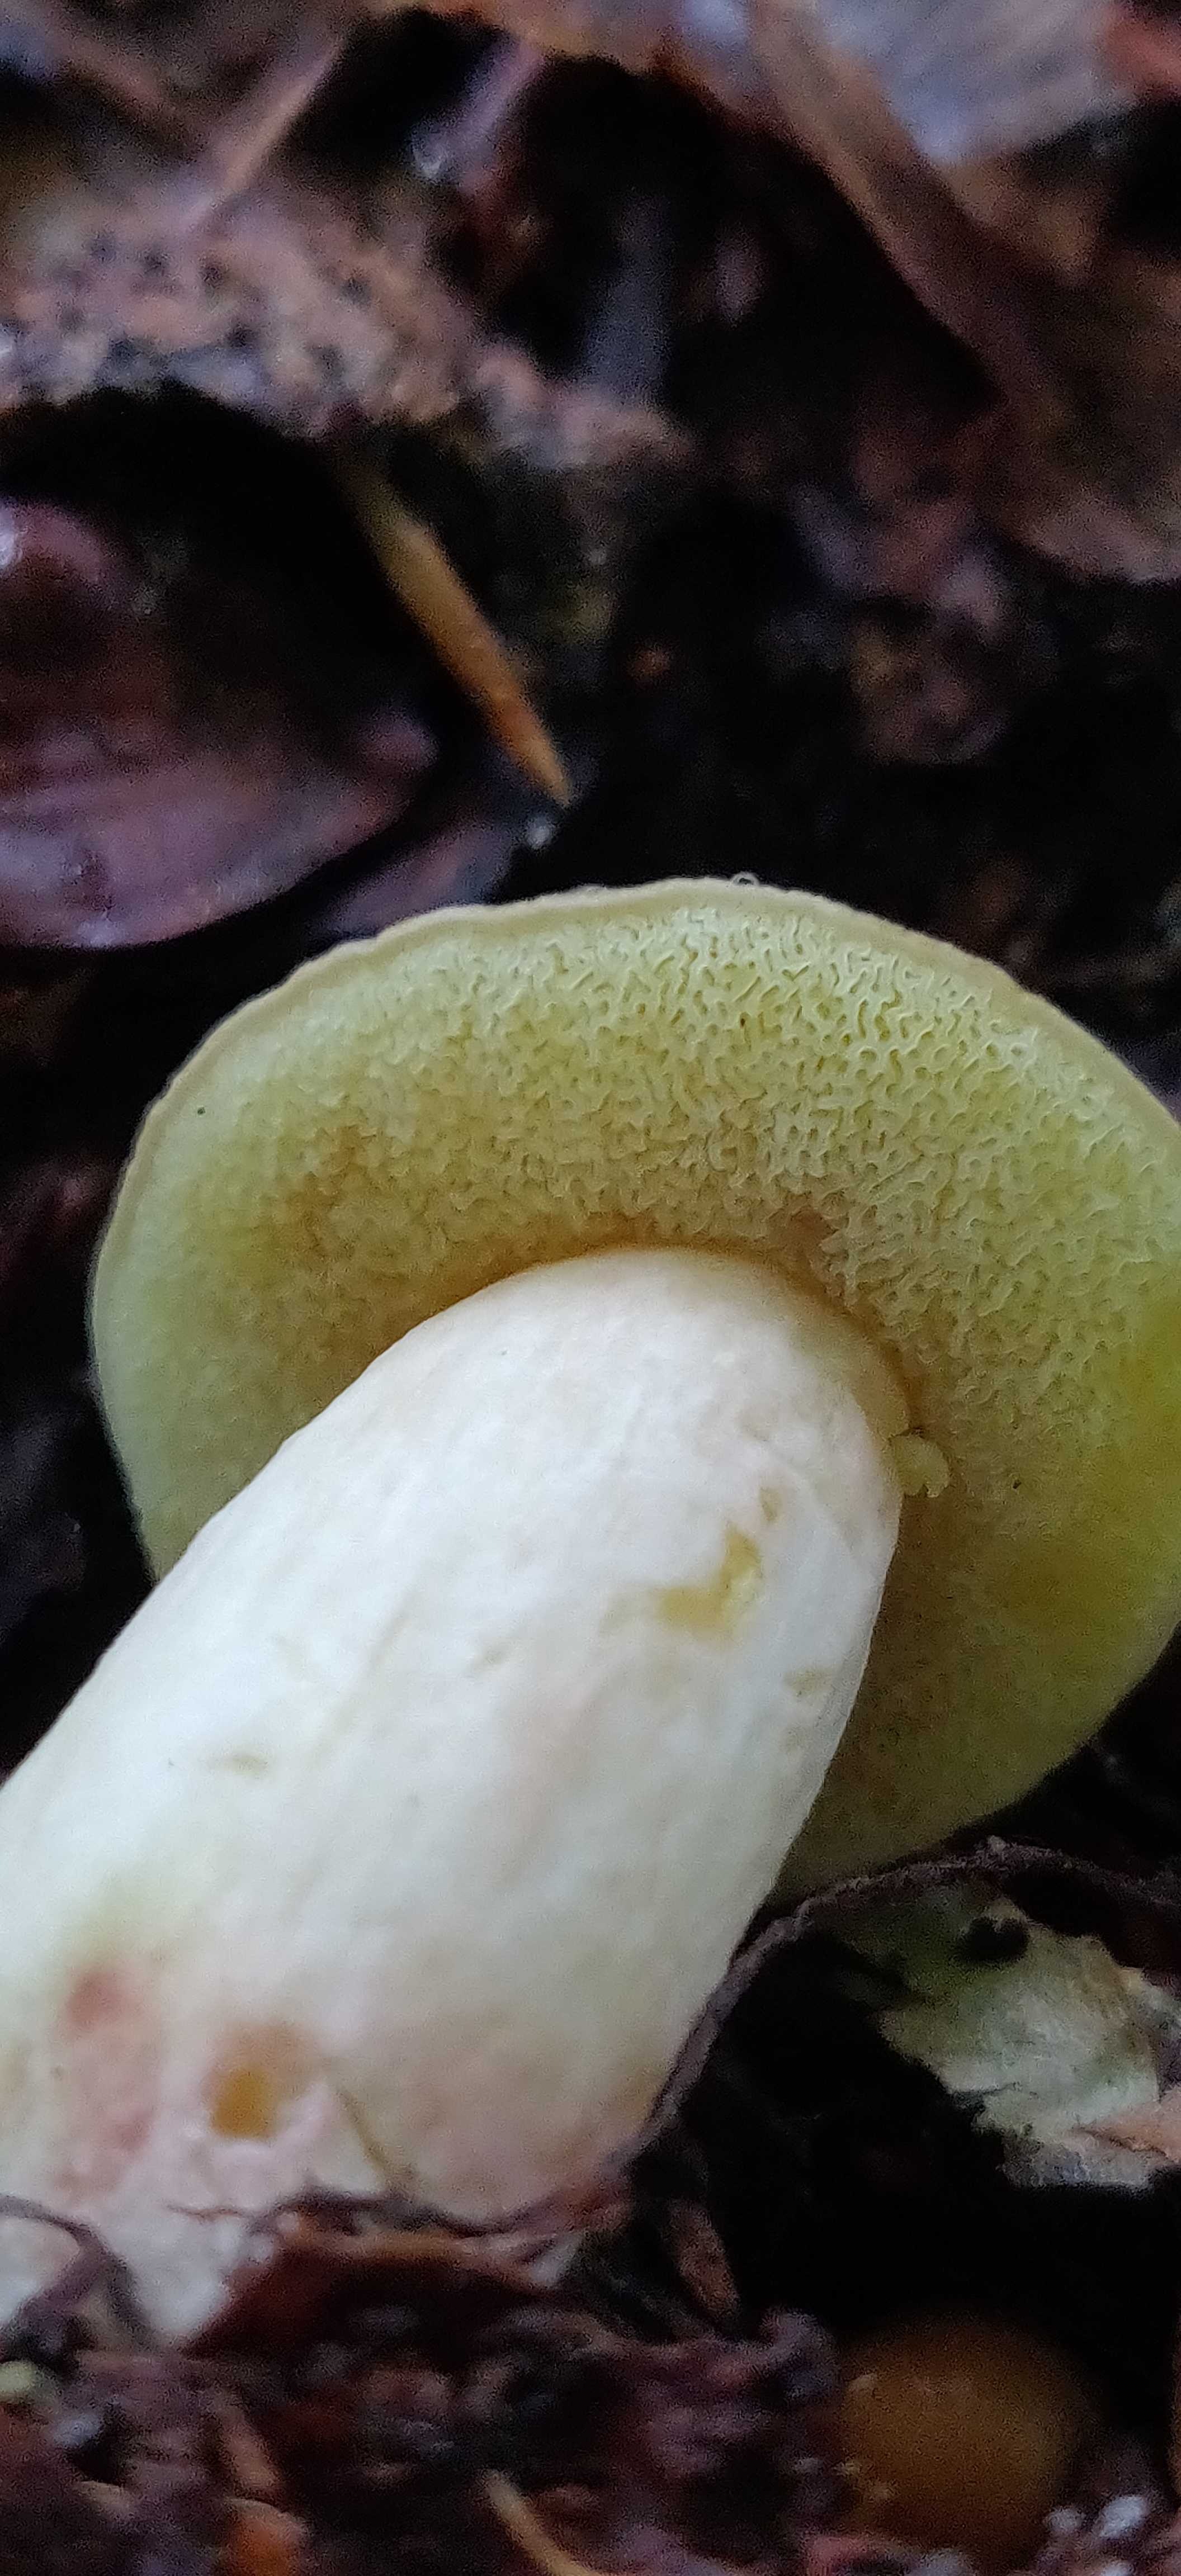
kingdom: Fungi
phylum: Basidiomycota
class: Agaricomycetes
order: Boletales
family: Boletaceae
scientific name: Boletaceae
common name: rørhatfamilien
